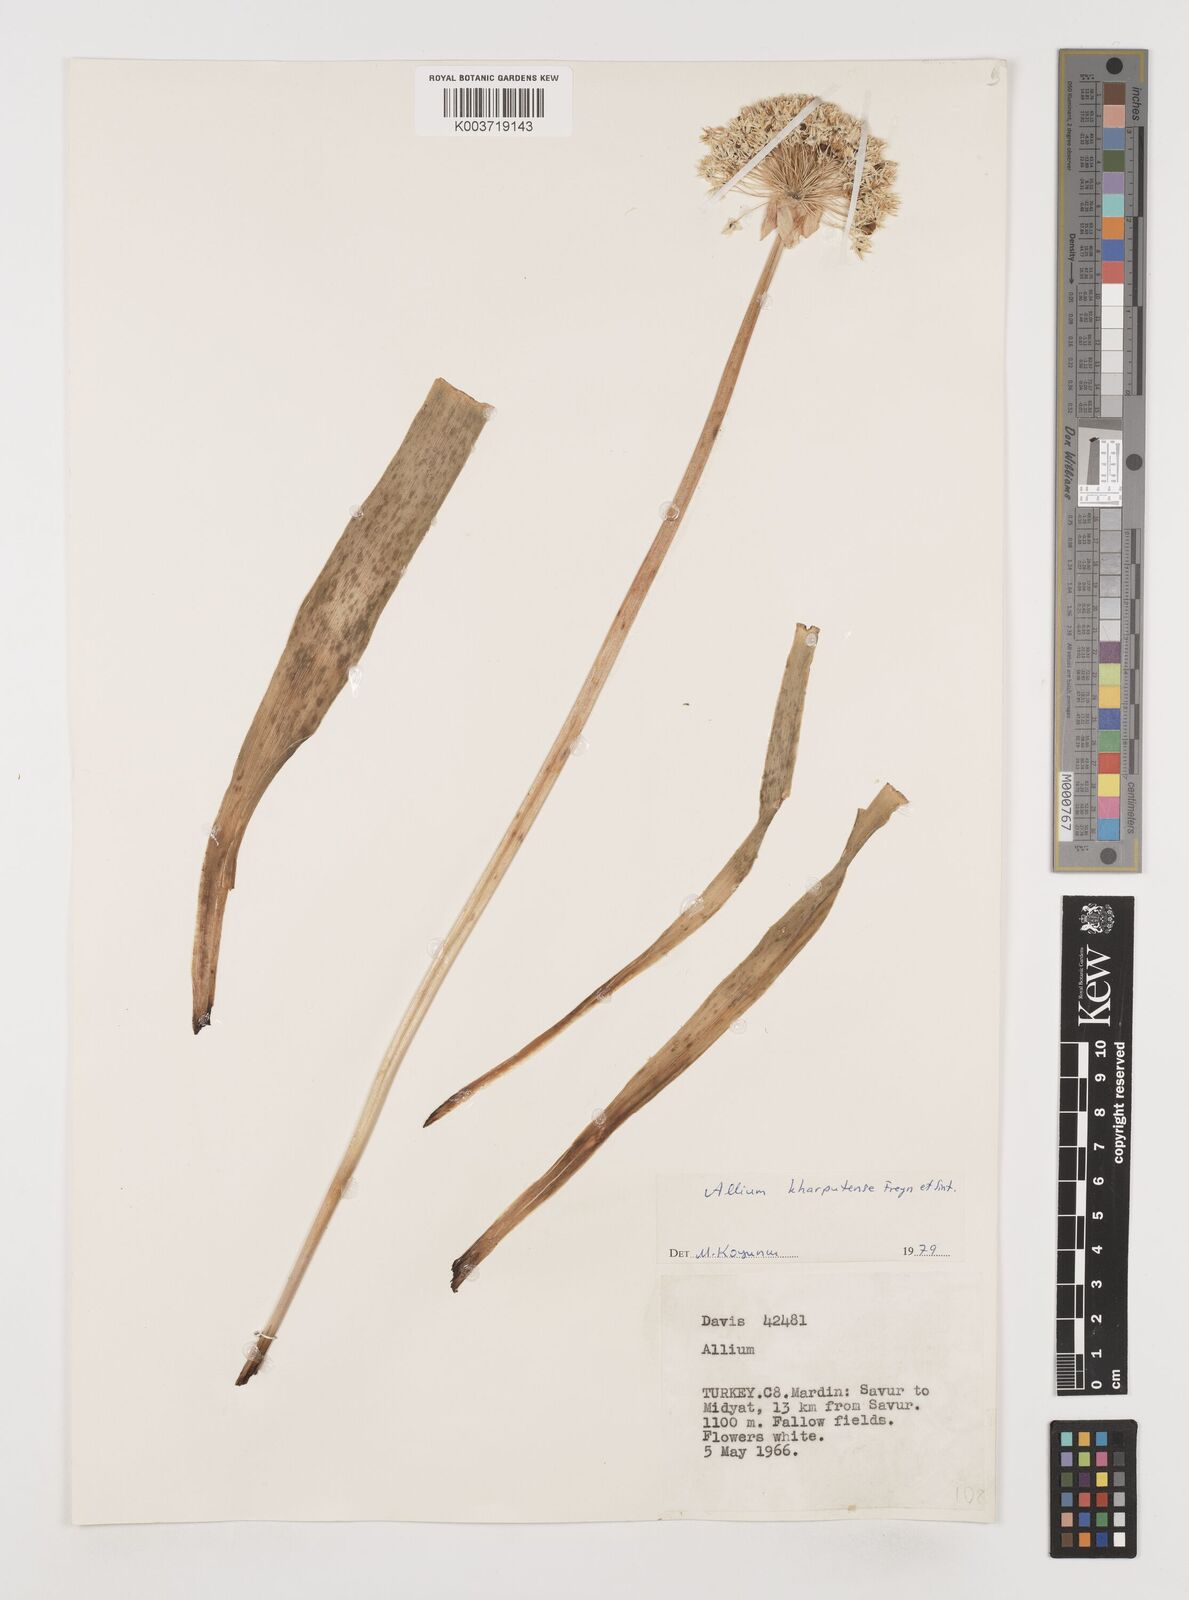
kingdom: Plantae
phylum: Tracheophyta
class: Liliopsida
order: Asparagales
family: Amaryllidaceae
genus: Allium
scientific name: Allium kharputense
